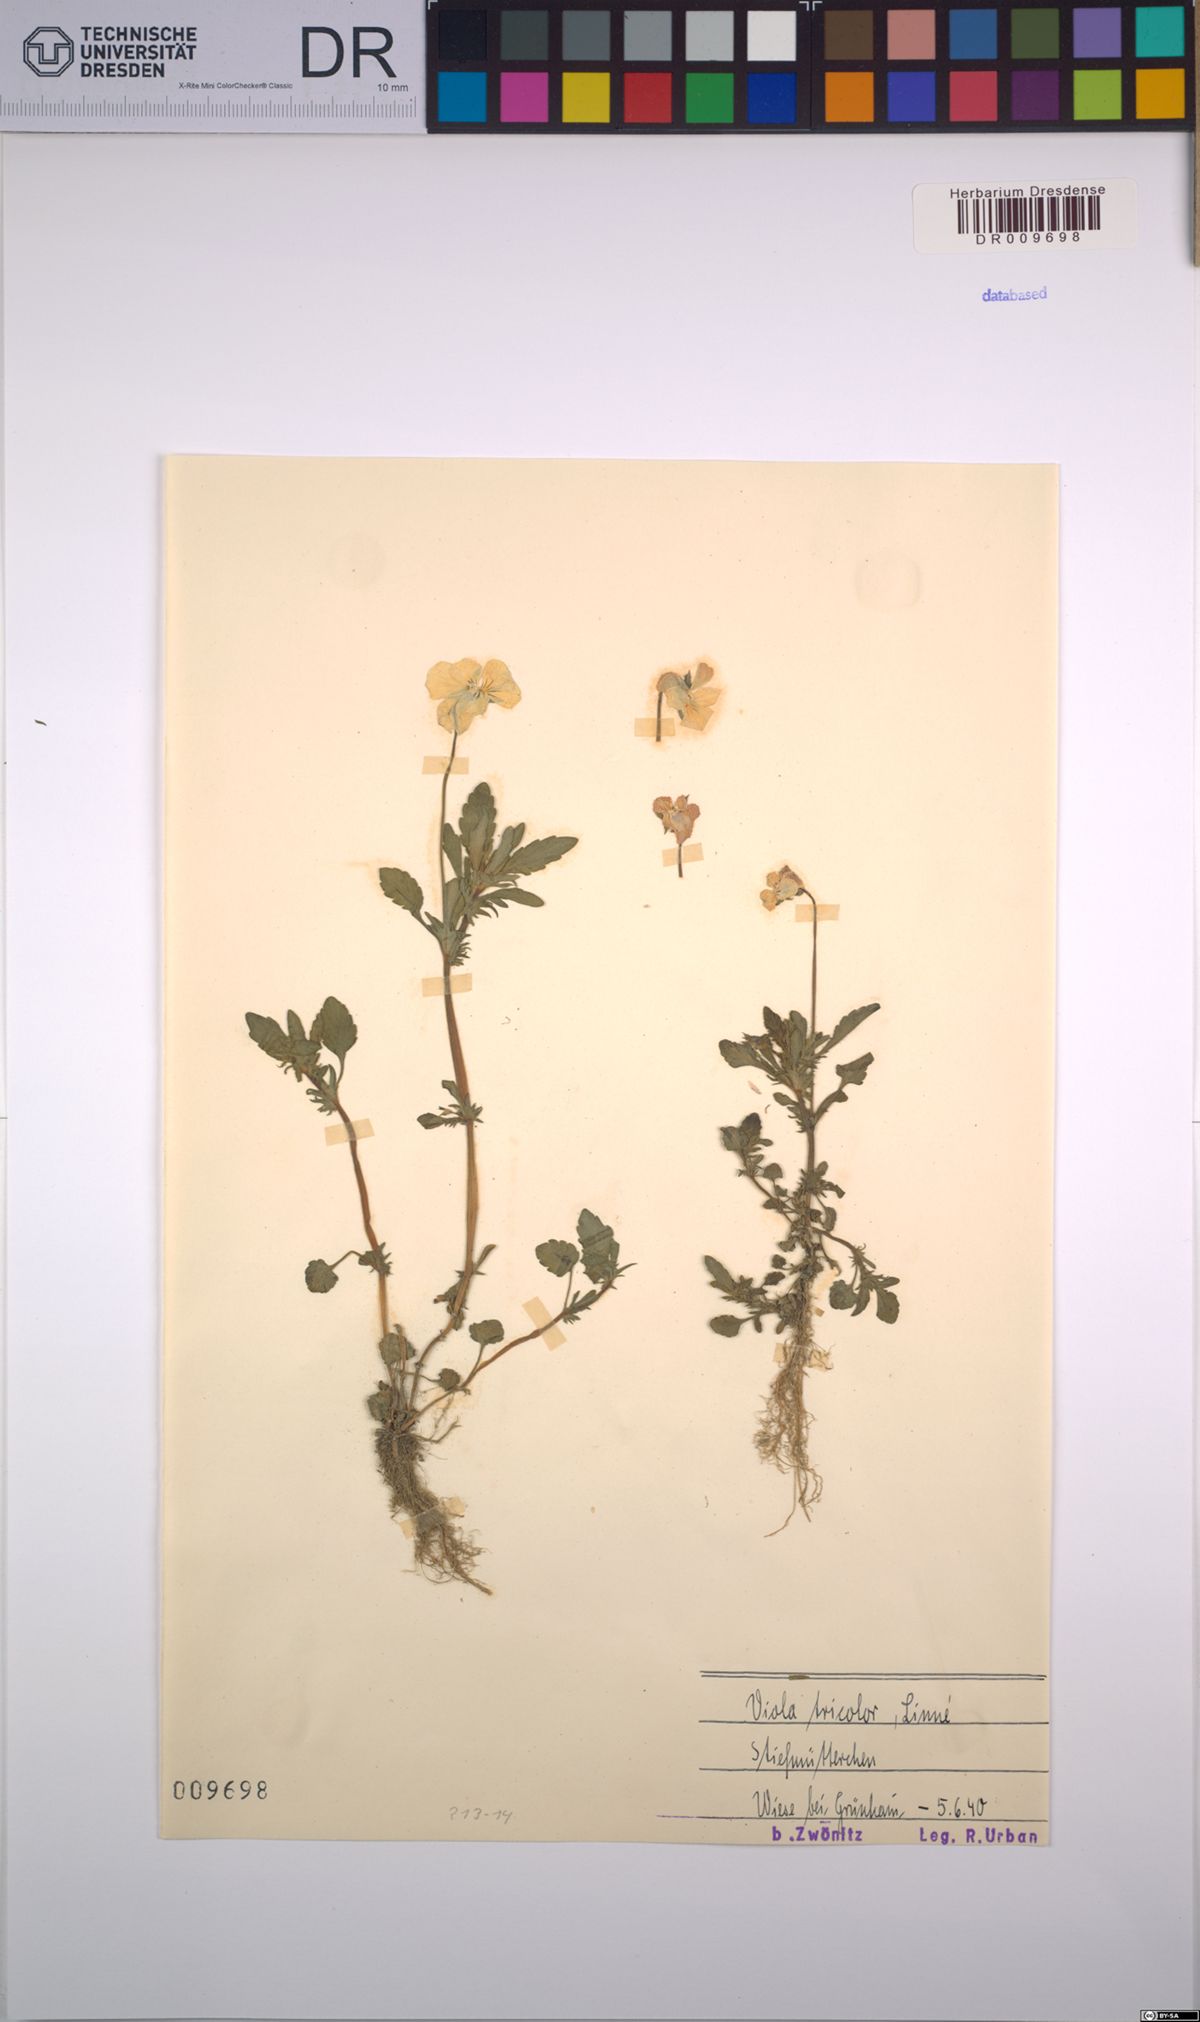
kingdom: Plantae
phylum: Tracheophyta
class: Magnoliopsida
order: Malpighiales
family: Violaceae
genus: Viola
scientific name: Viola tricolor
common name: Pansy
